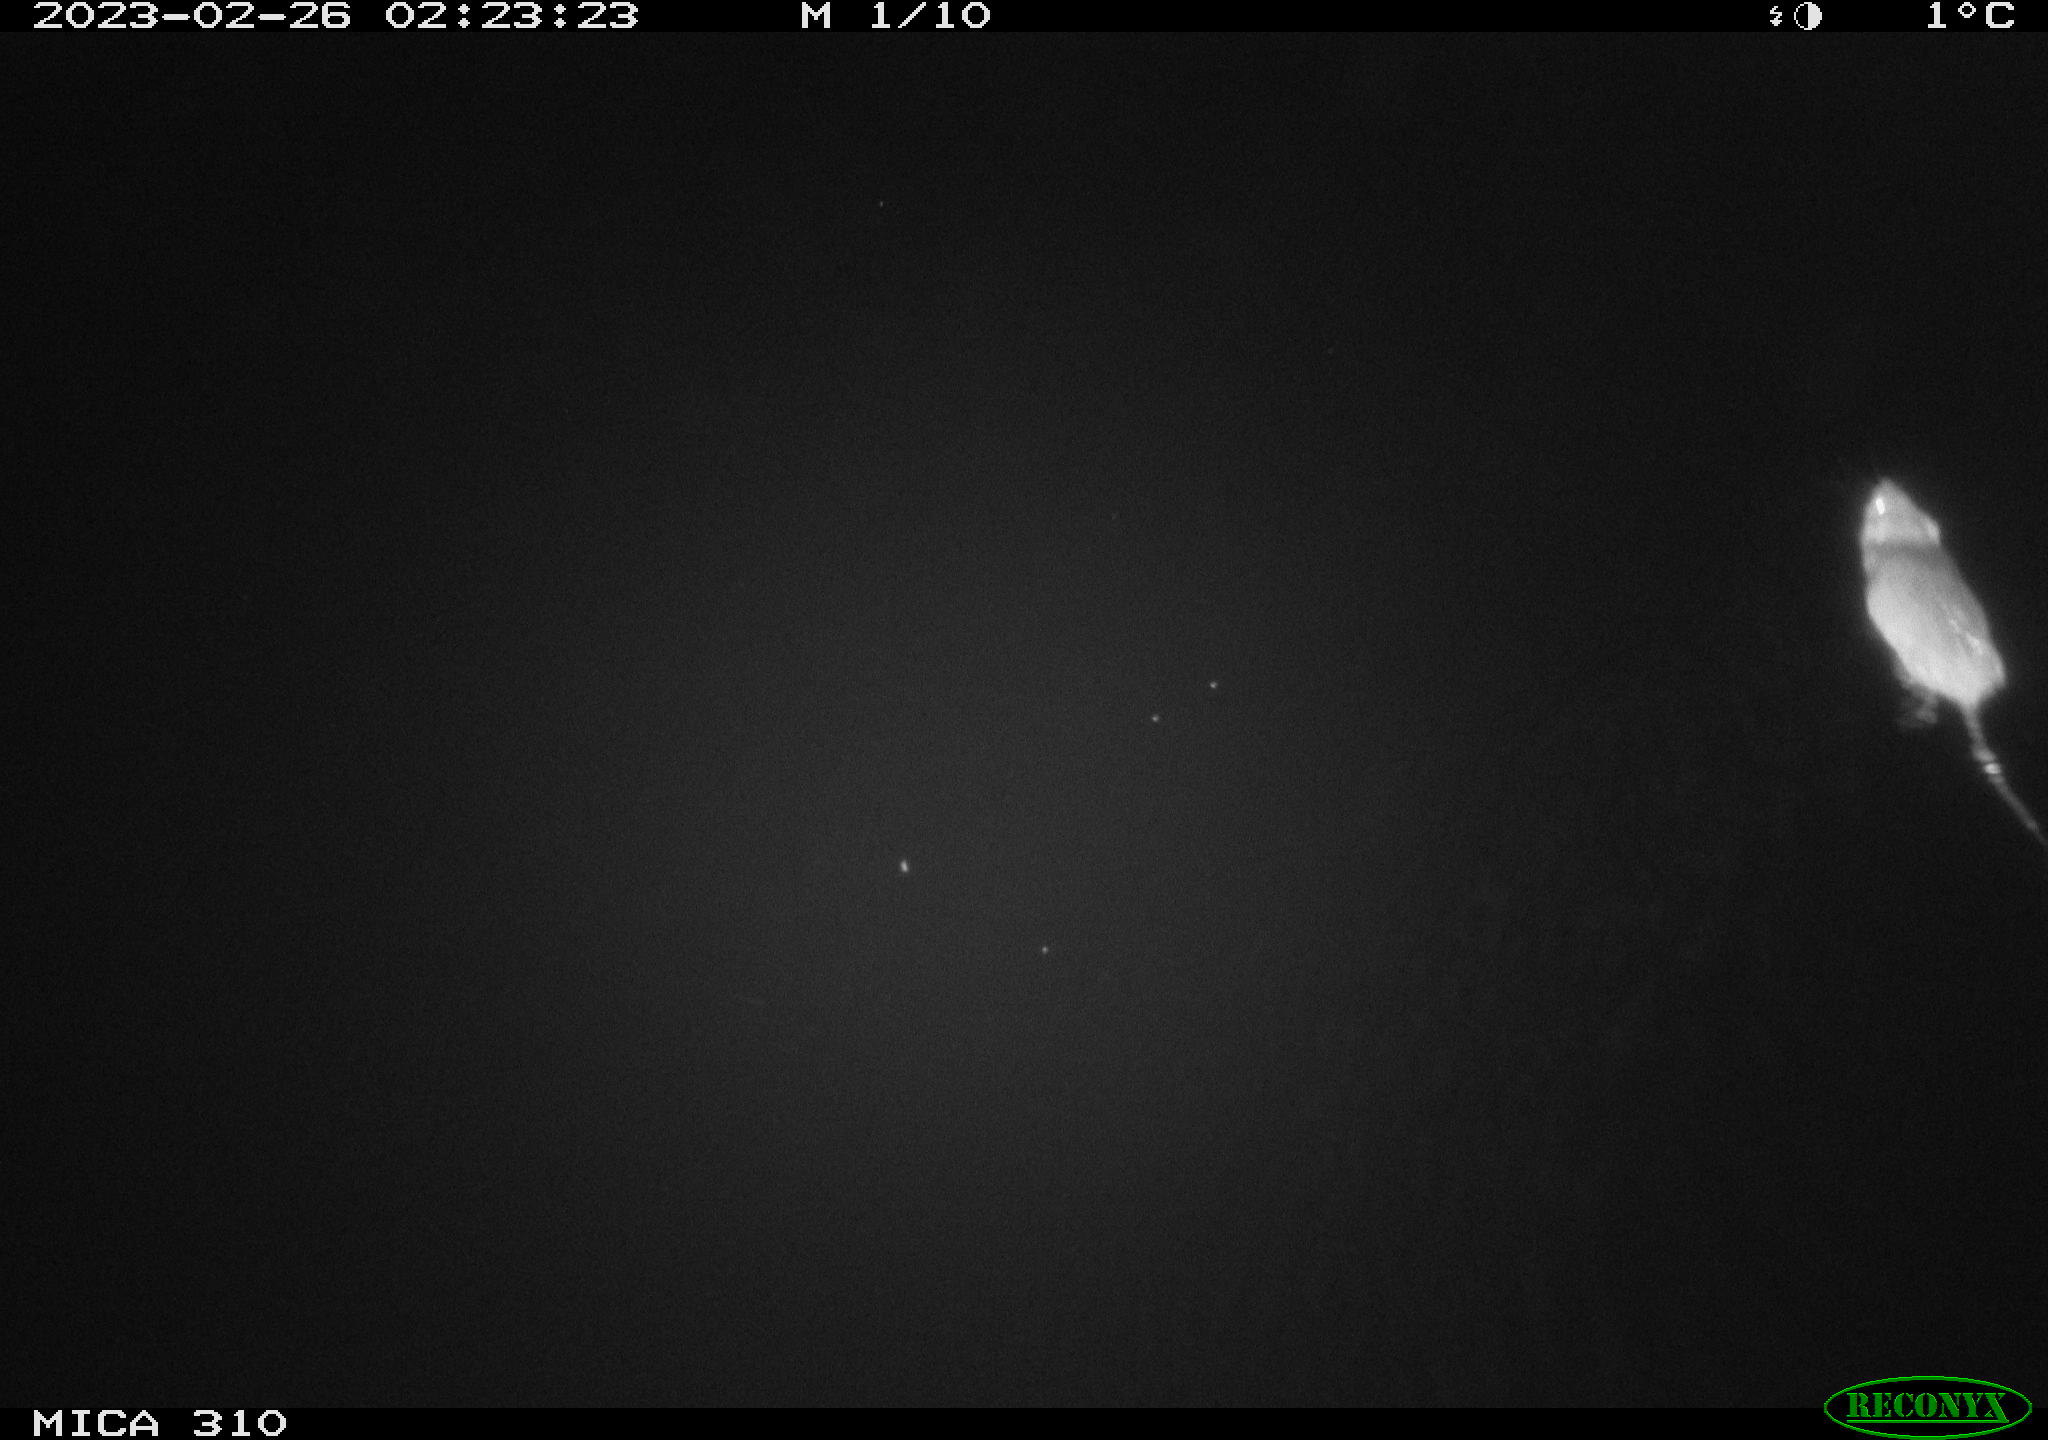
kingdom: Animalia
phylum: Chordata
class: Mammalia
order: Rodentia
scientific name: Rodentia
